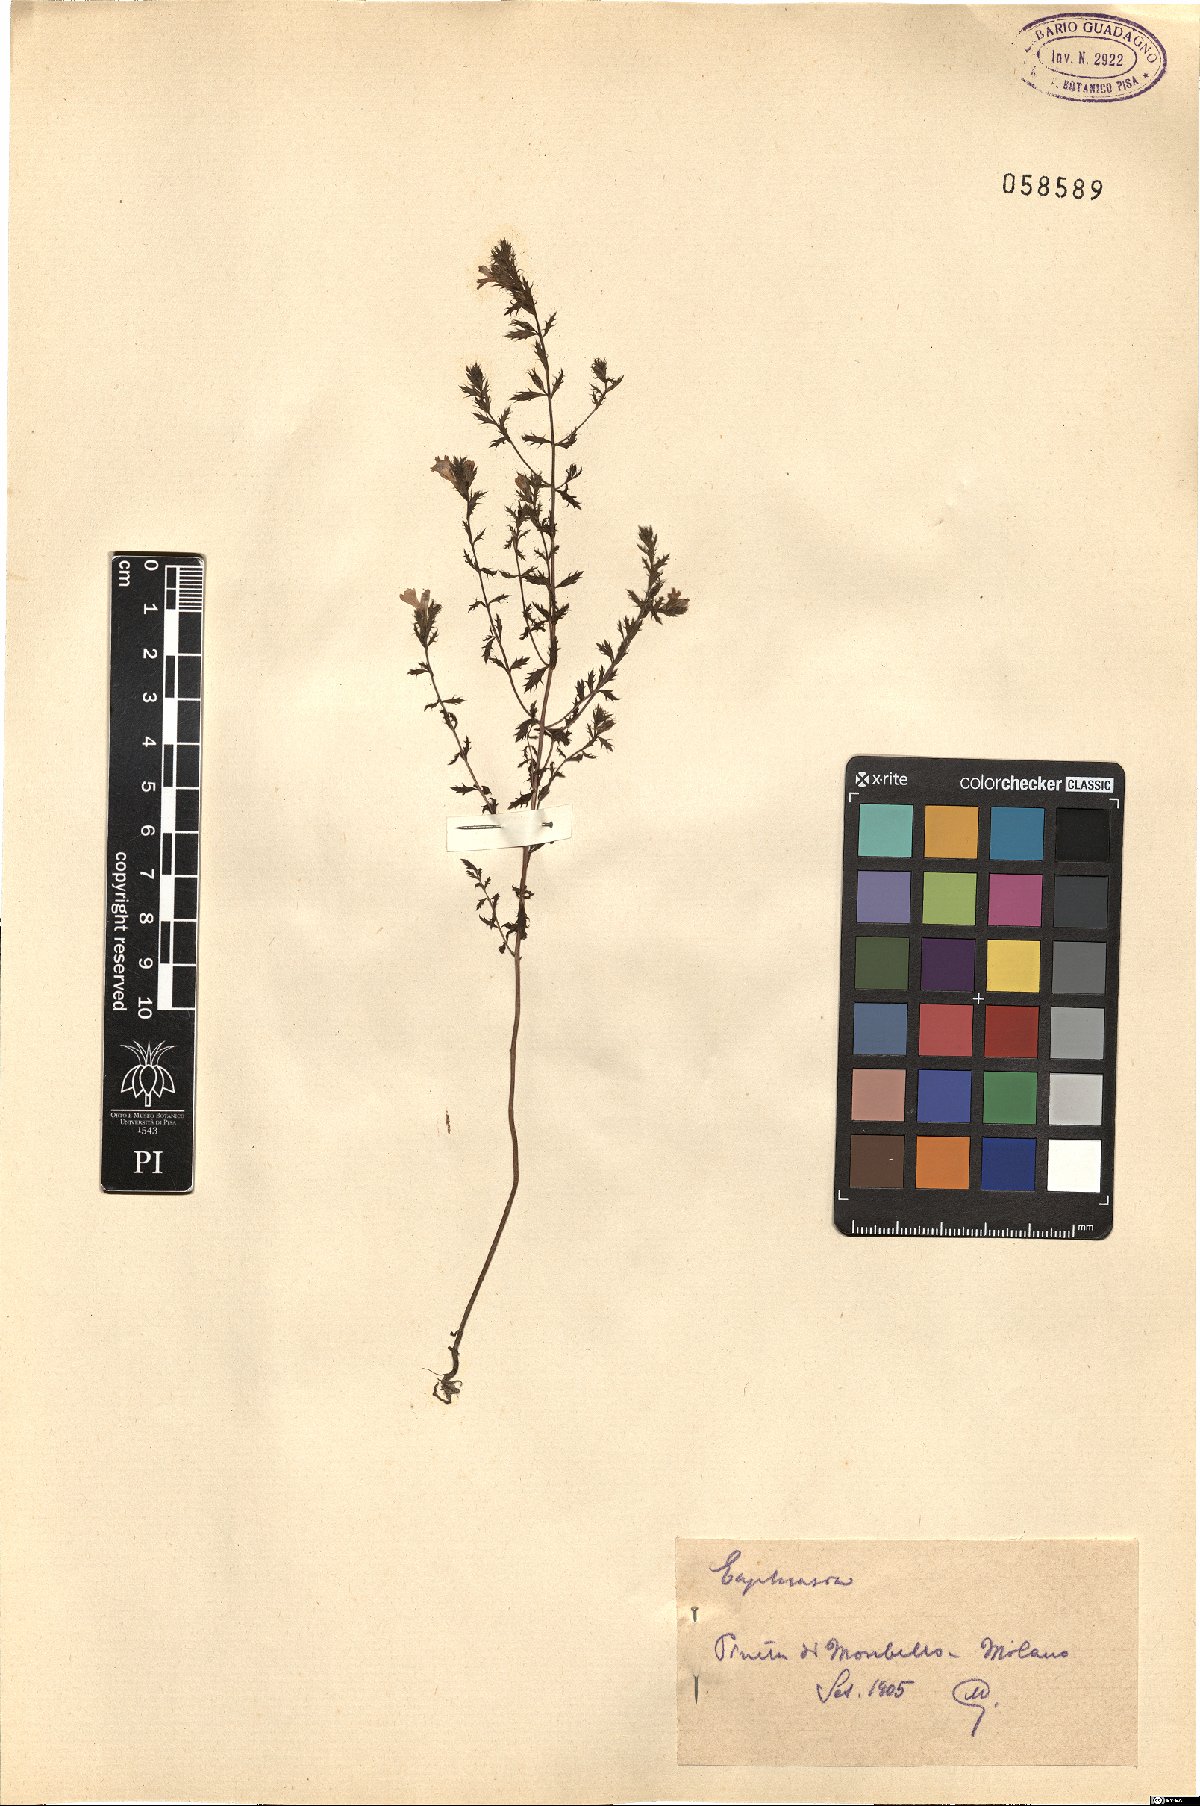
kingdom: Plantae
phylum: Tracheophyta
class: Magnoliopsida
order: Lamiales
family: Orobanchaceae
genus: Euphrasia
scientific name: Euphrasia
